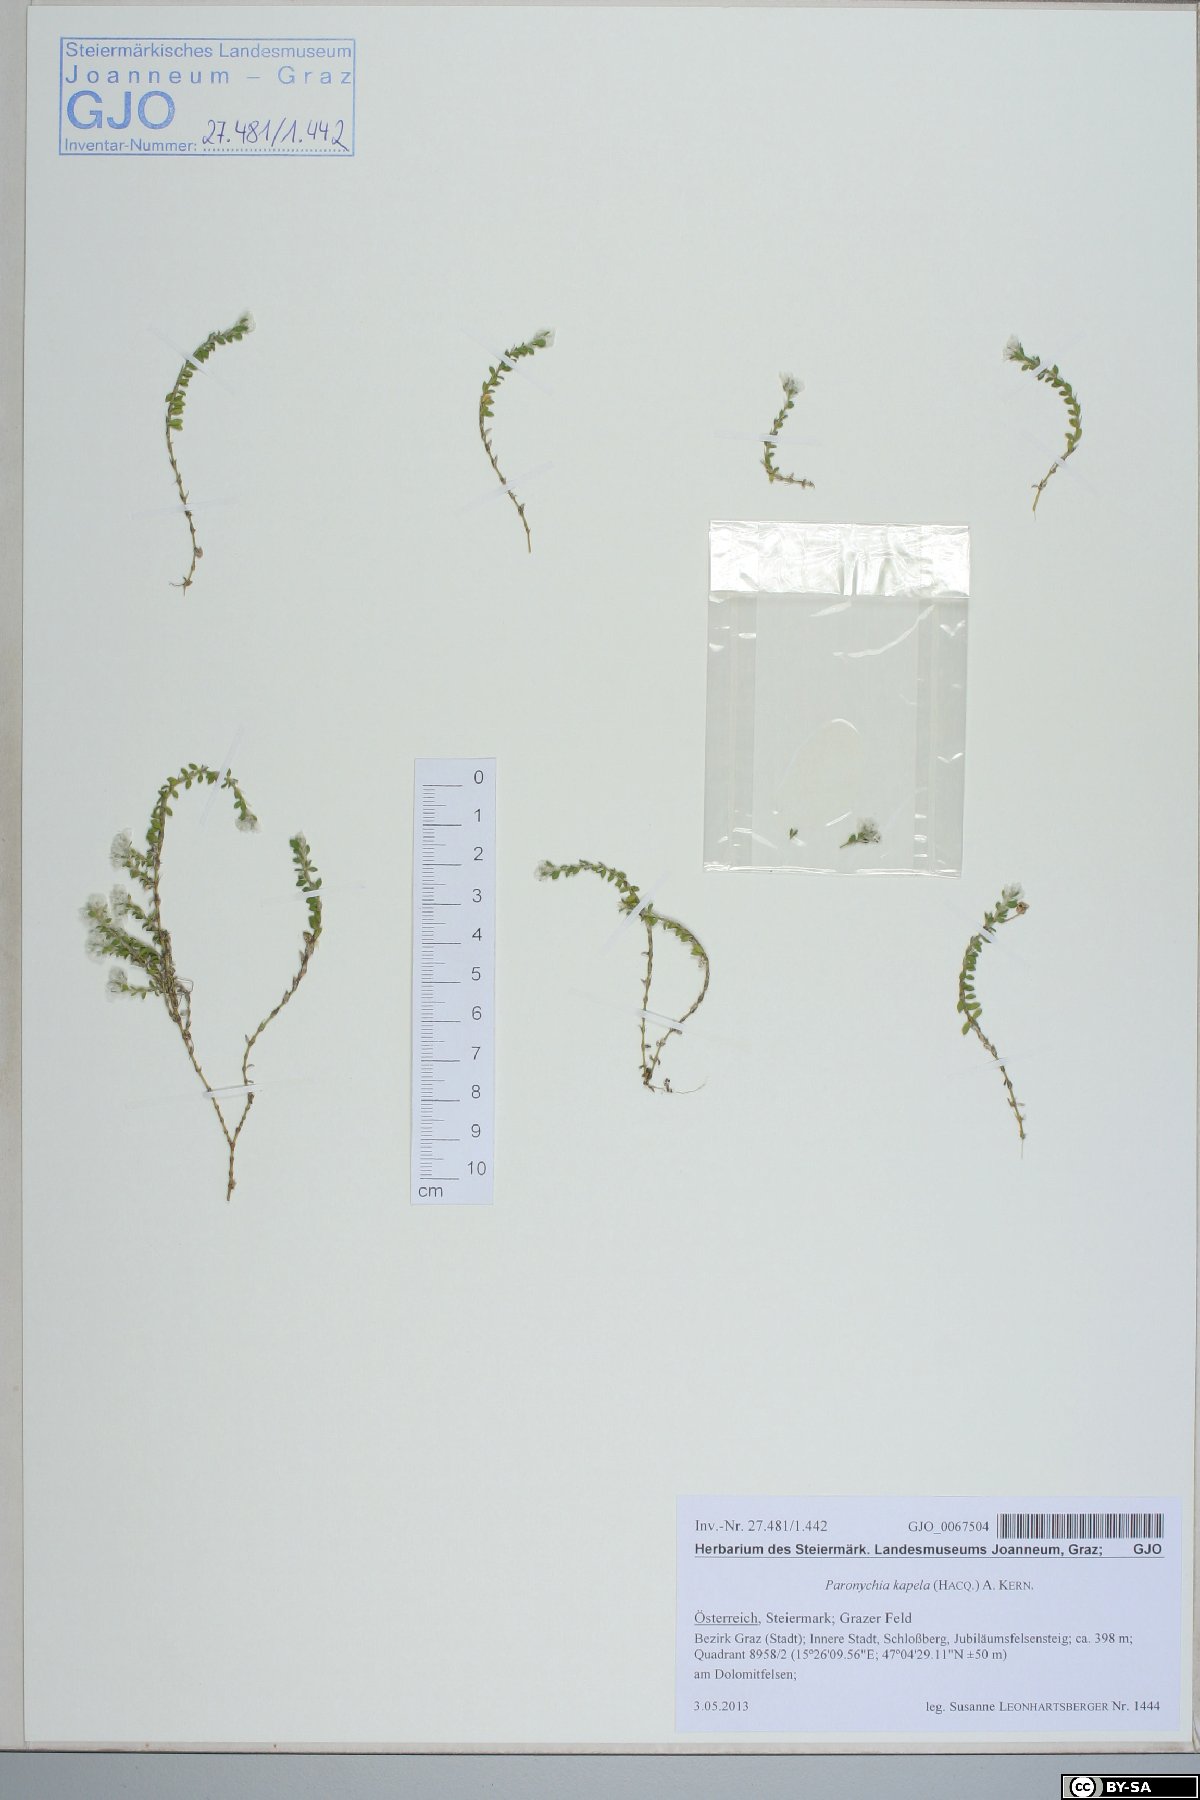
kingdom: Plantae
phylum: Tracheophyta
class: Magnoliopsida
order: Caryophyllales
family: Caryophyllaceae
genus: Paronychia
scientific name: Paronychia kapela
